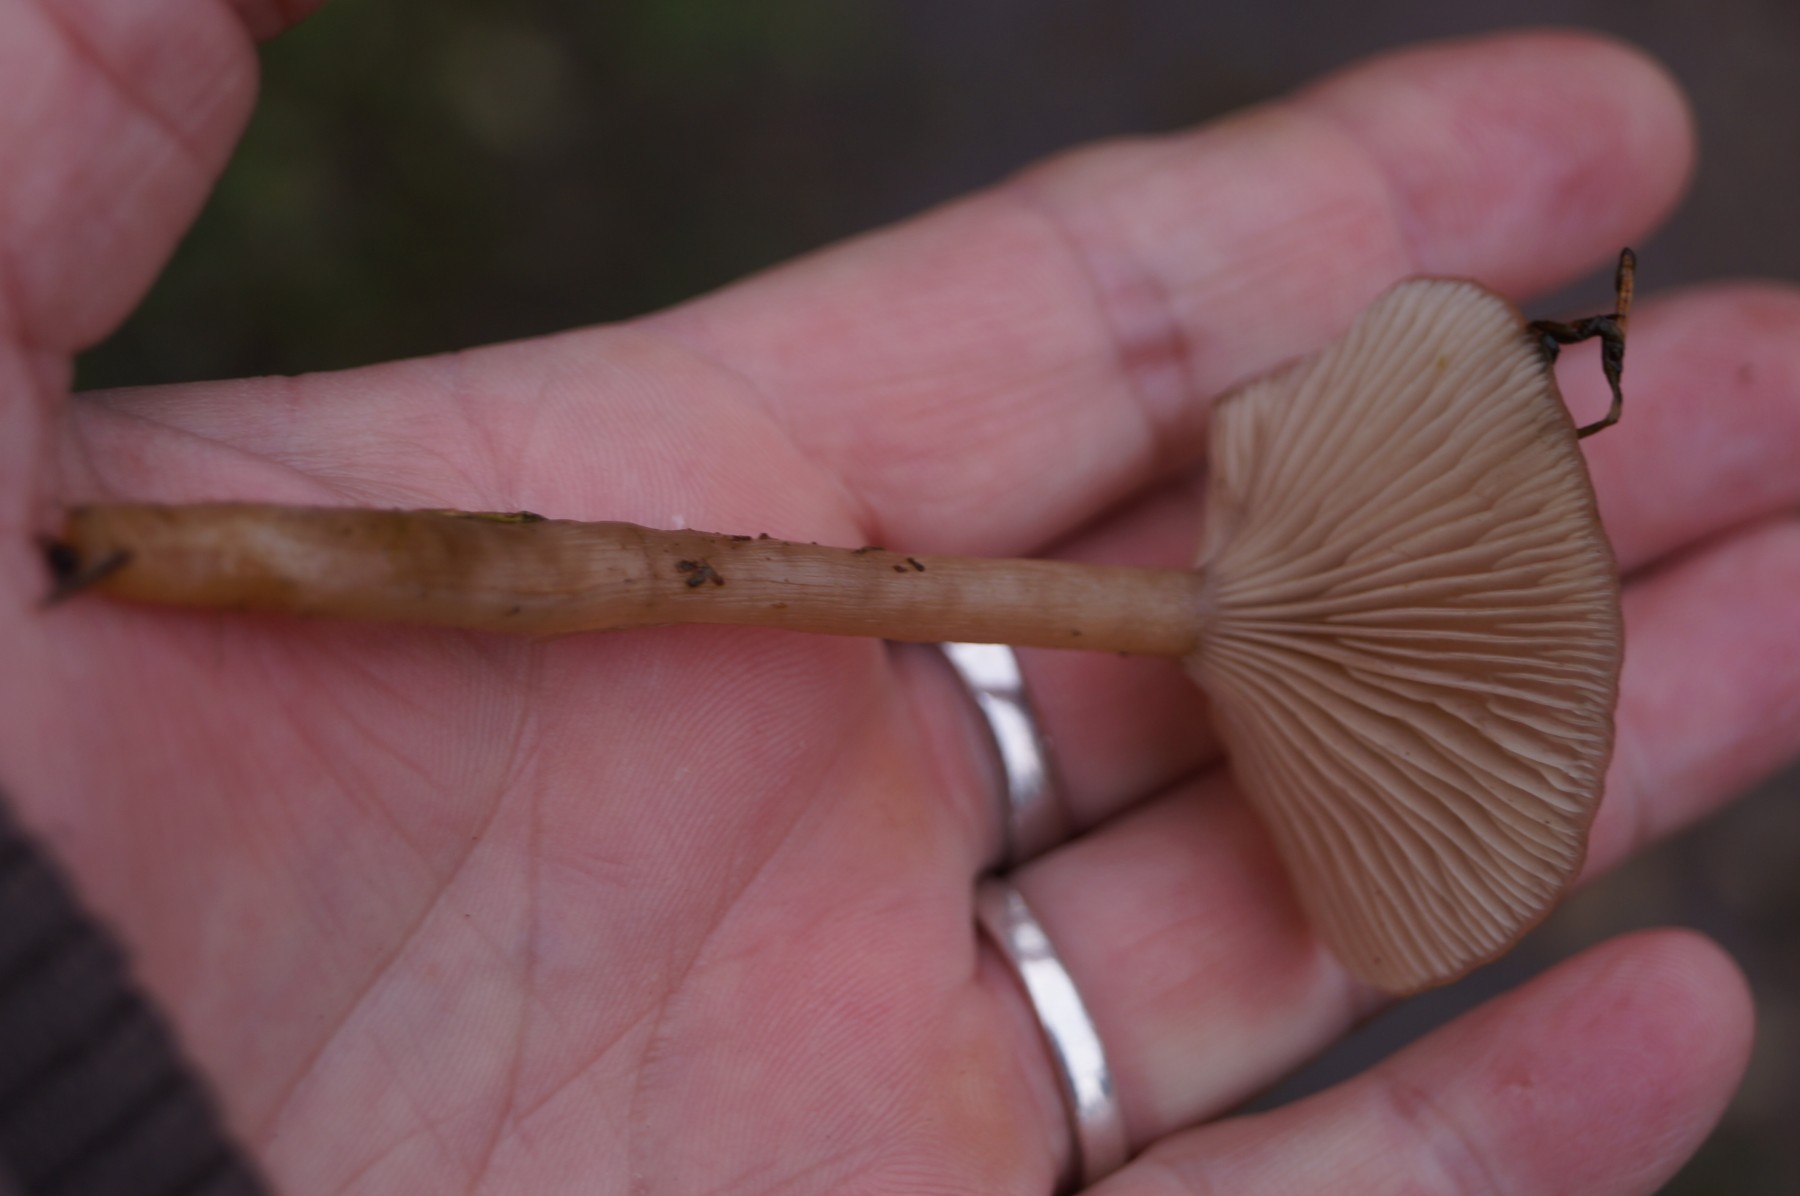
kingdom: Fungi
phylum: Basidiomycota
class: Agaricomycetes
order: Agaricales
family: Tricholomataceae
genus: Clitocybe
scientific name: Clitocybe fragrans
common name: vellugtende tragthat
